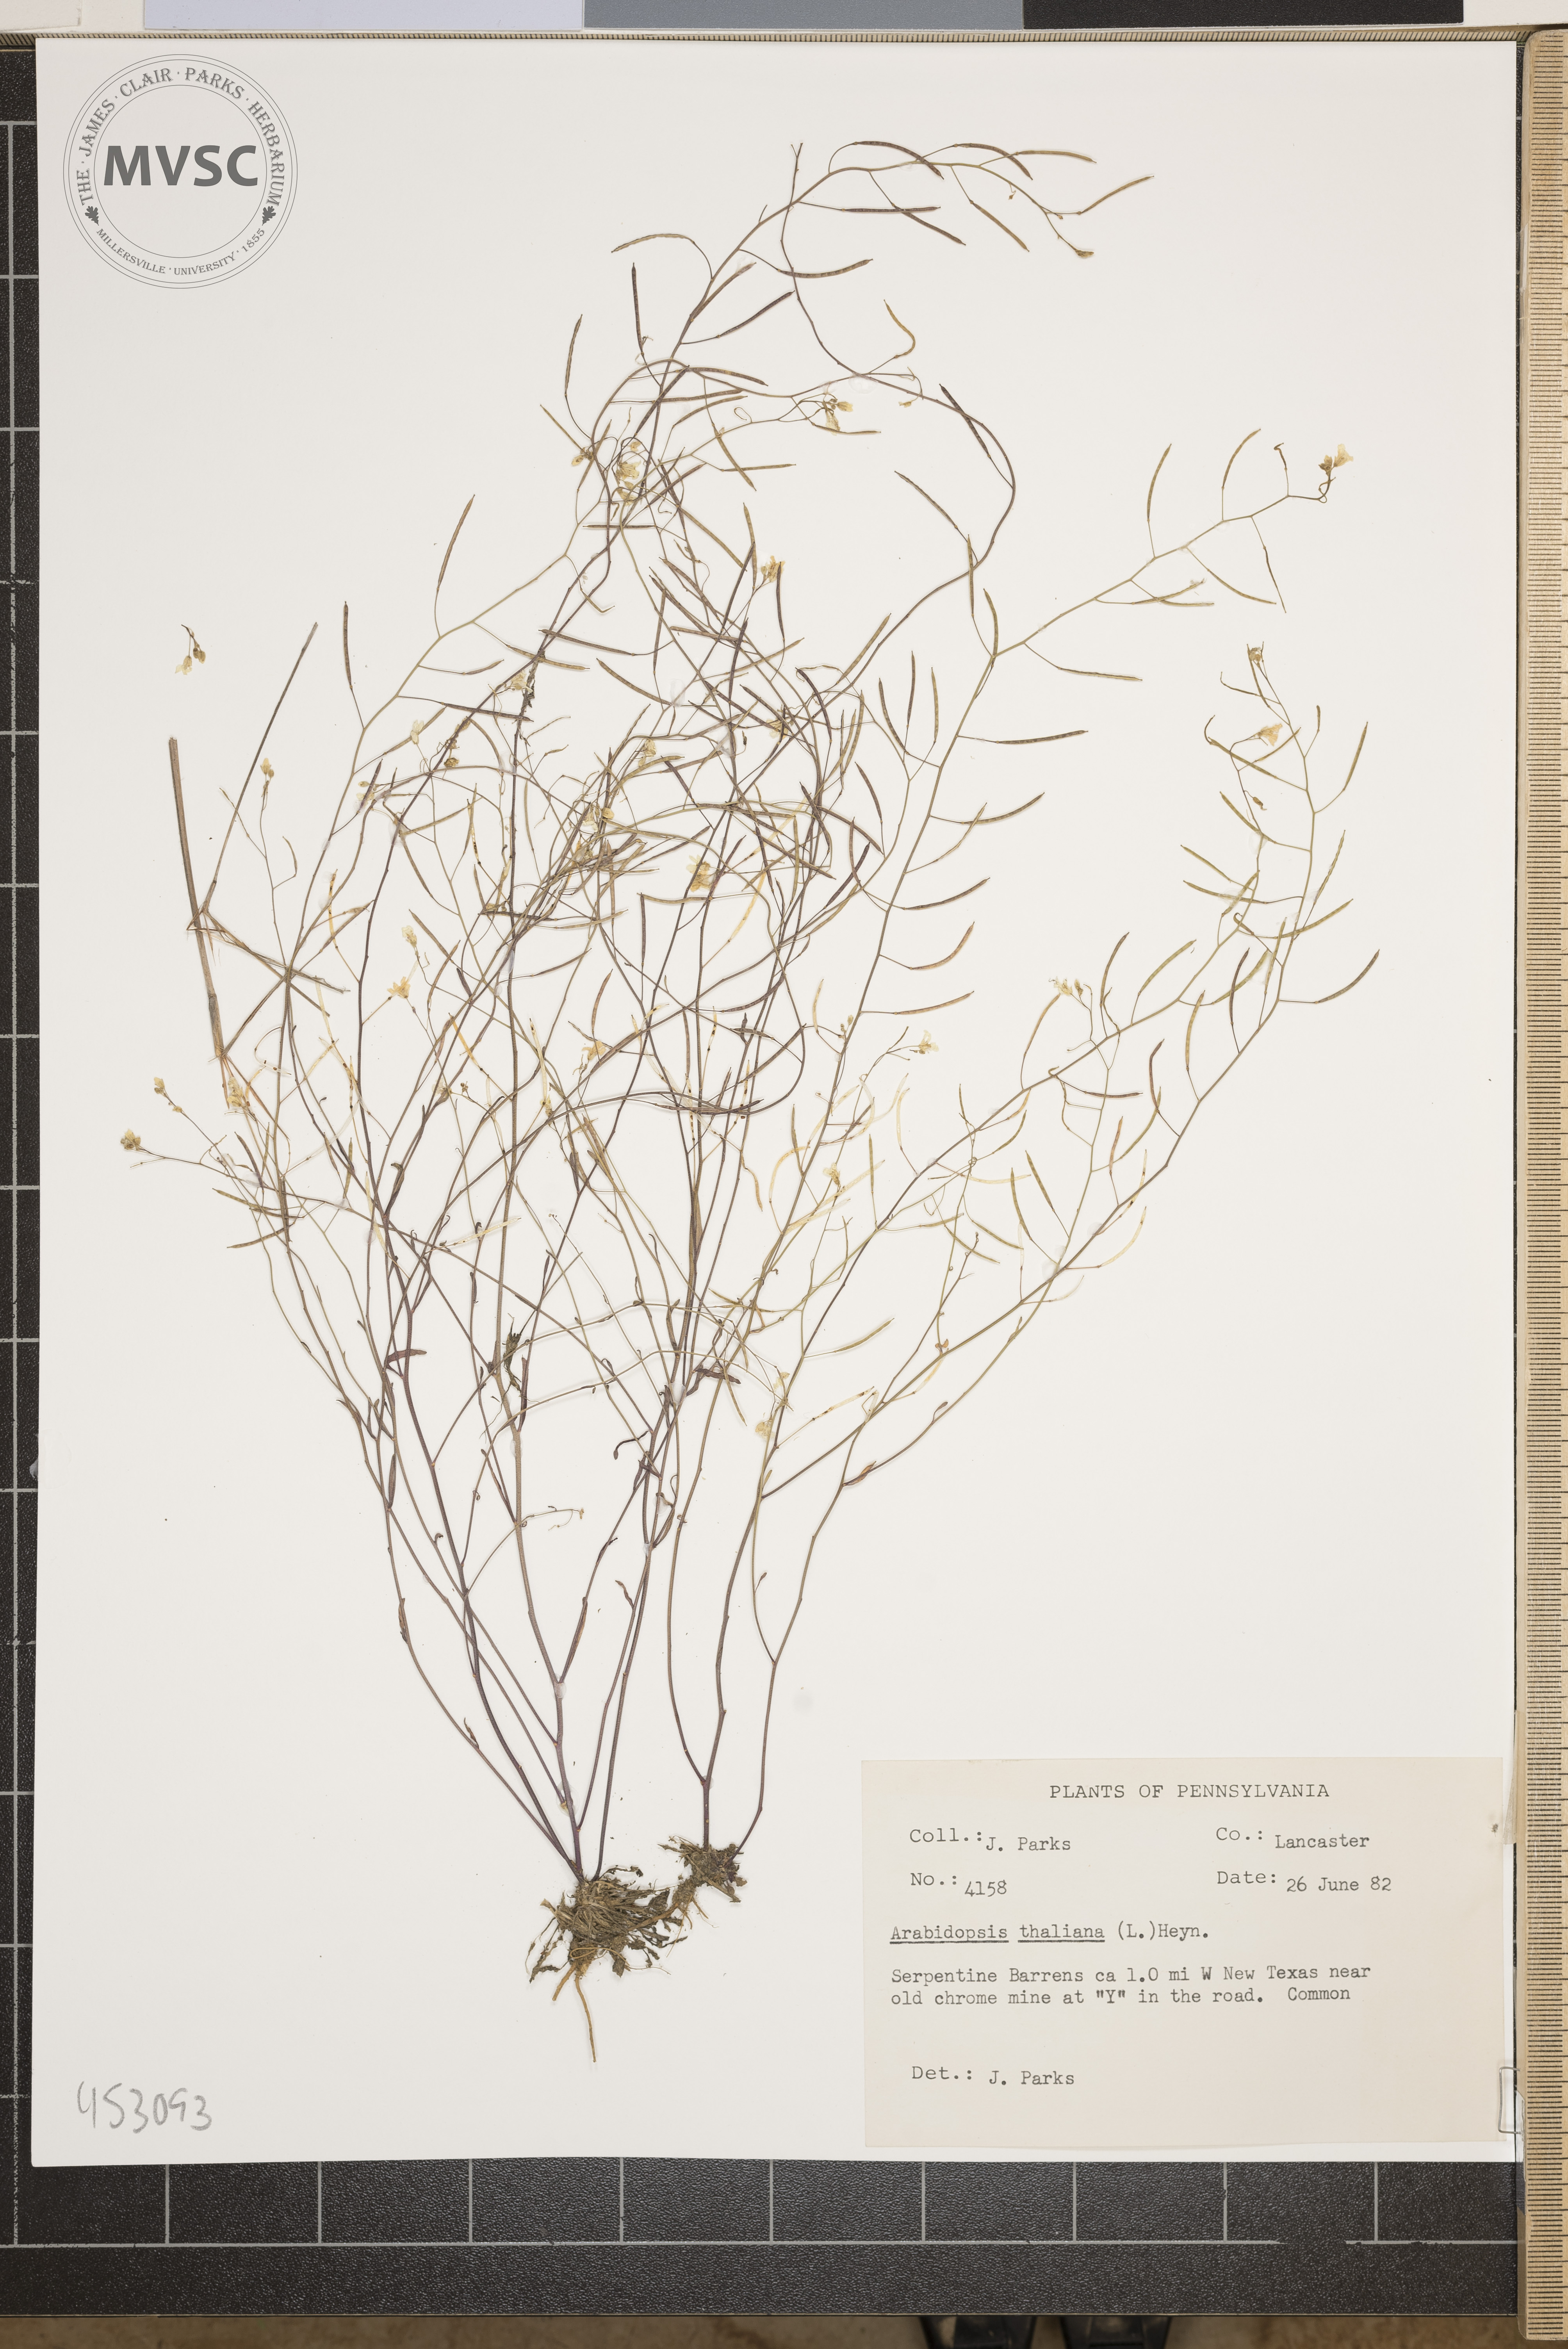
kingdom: Plantae
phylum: Tracheophyta
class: Magnoliopsida
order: Brassicales
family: Brassicaceae
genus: Arabidopsis
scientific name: Arabidopsis lyrata
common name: Lyrate rockcress
